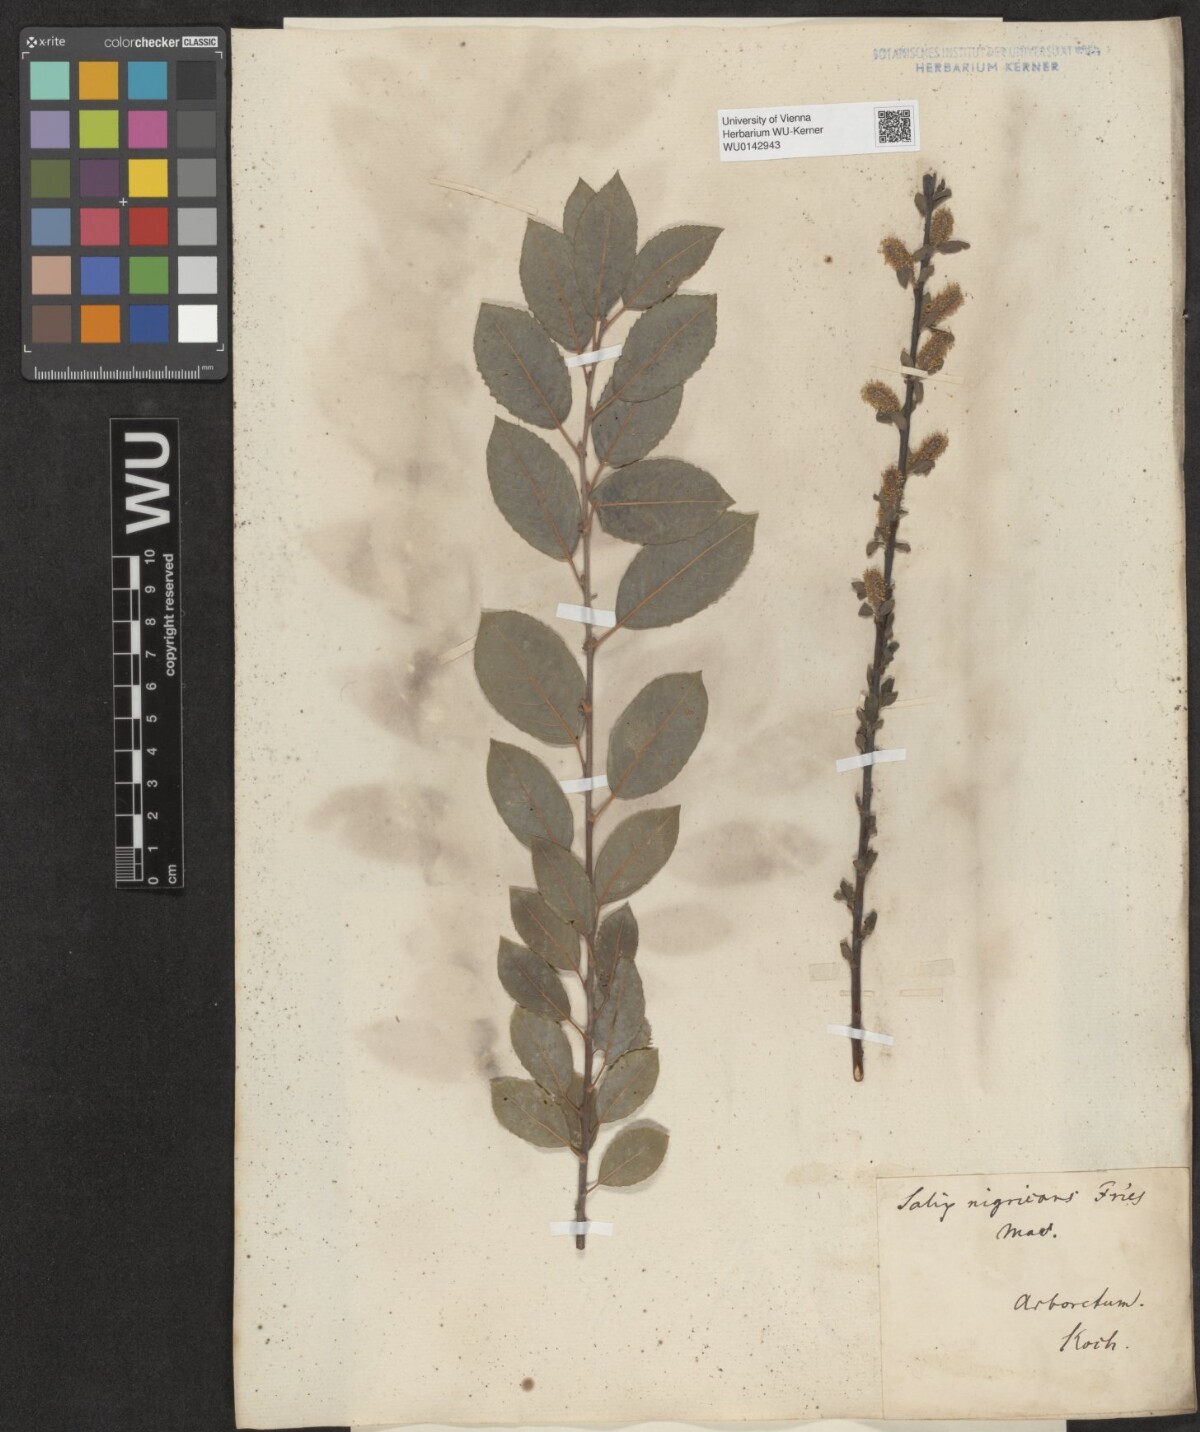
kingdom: Plantae
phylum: Tracheophyta
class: Magnoliopsida
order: Malpighiales
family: Salicaceae
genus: Salix
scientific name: Salix myrsinifolia
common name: Dark-leaved willow
